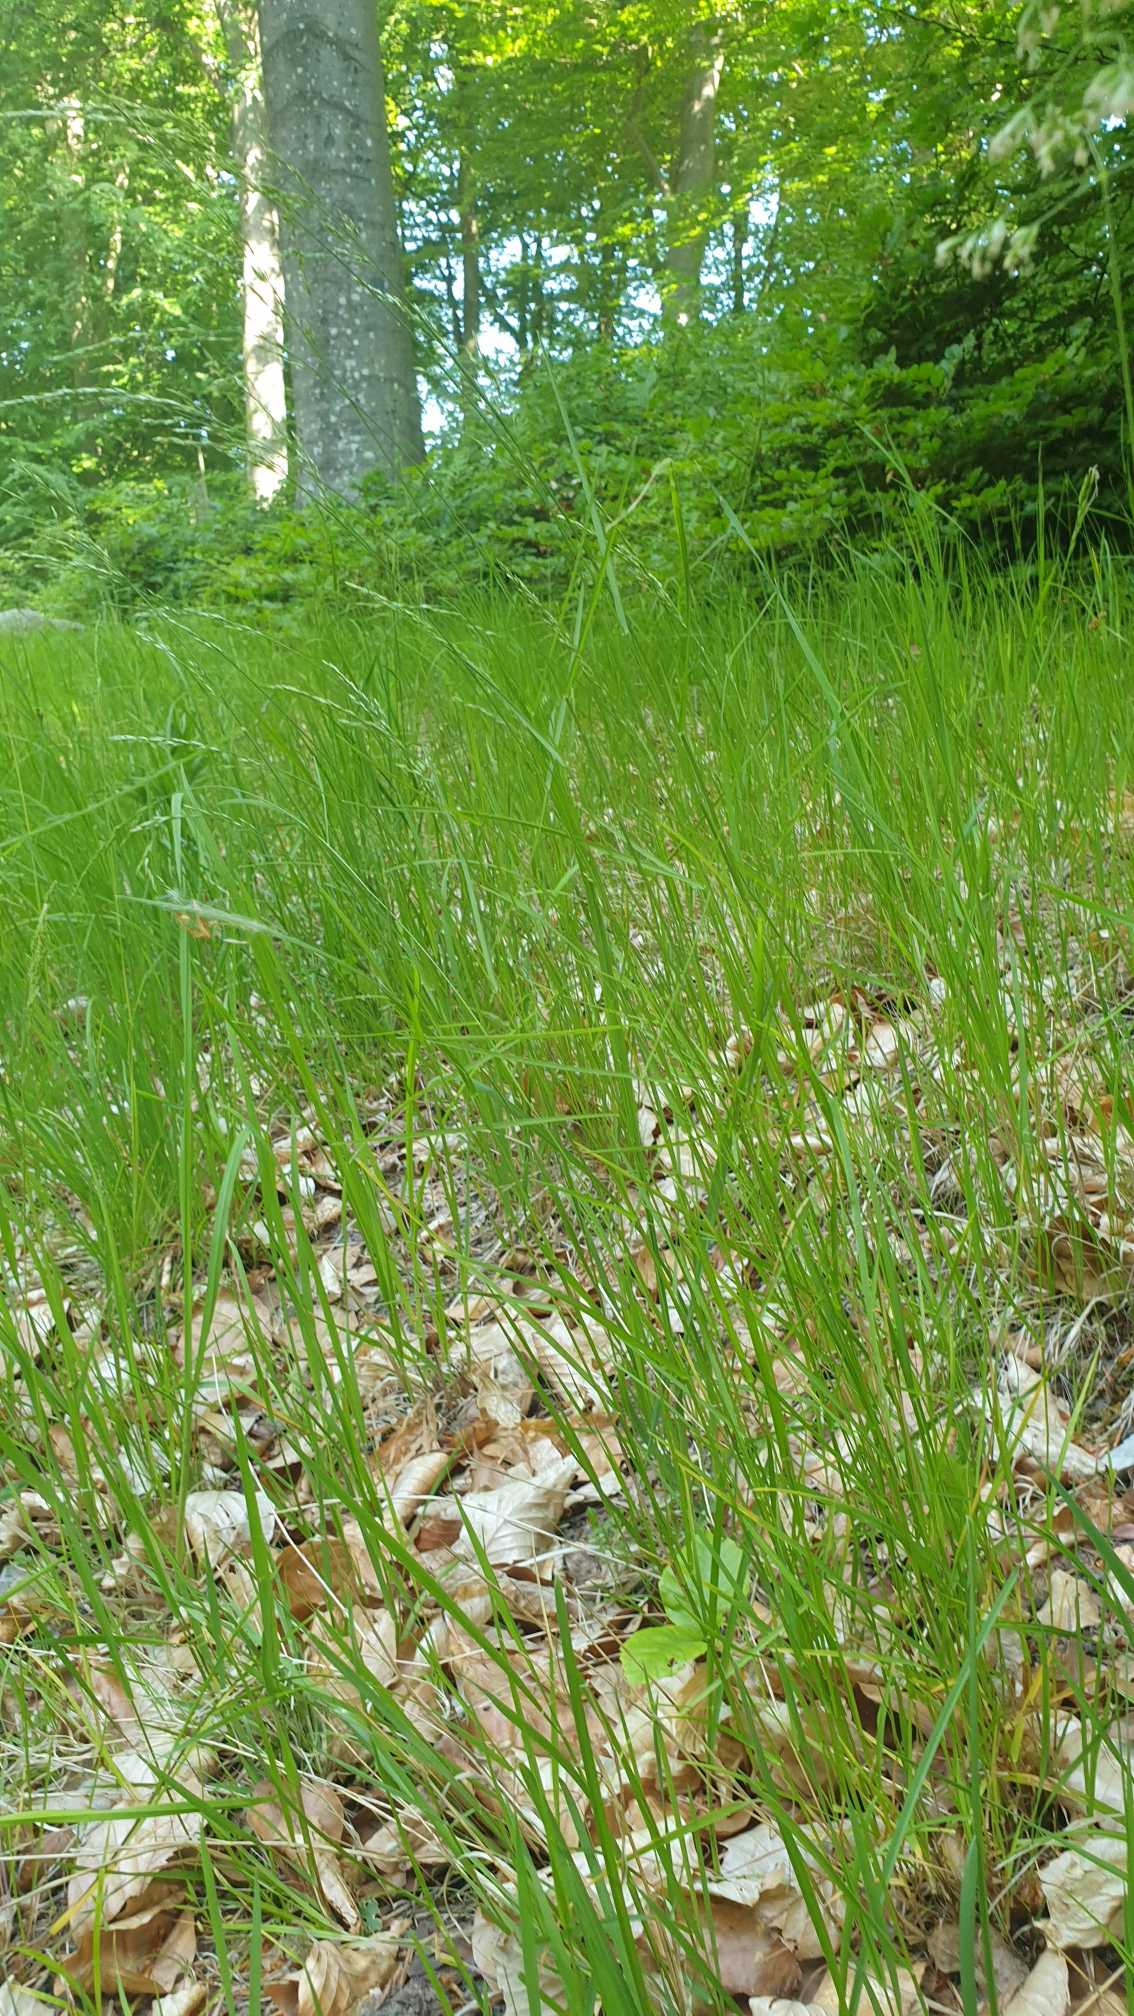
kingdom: Plantae
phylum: Tracheophyta
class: Liliopsida
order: Poales
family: Poaceae
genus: Poa
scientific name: Poa nemoralis
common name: Lund-rapgræs
